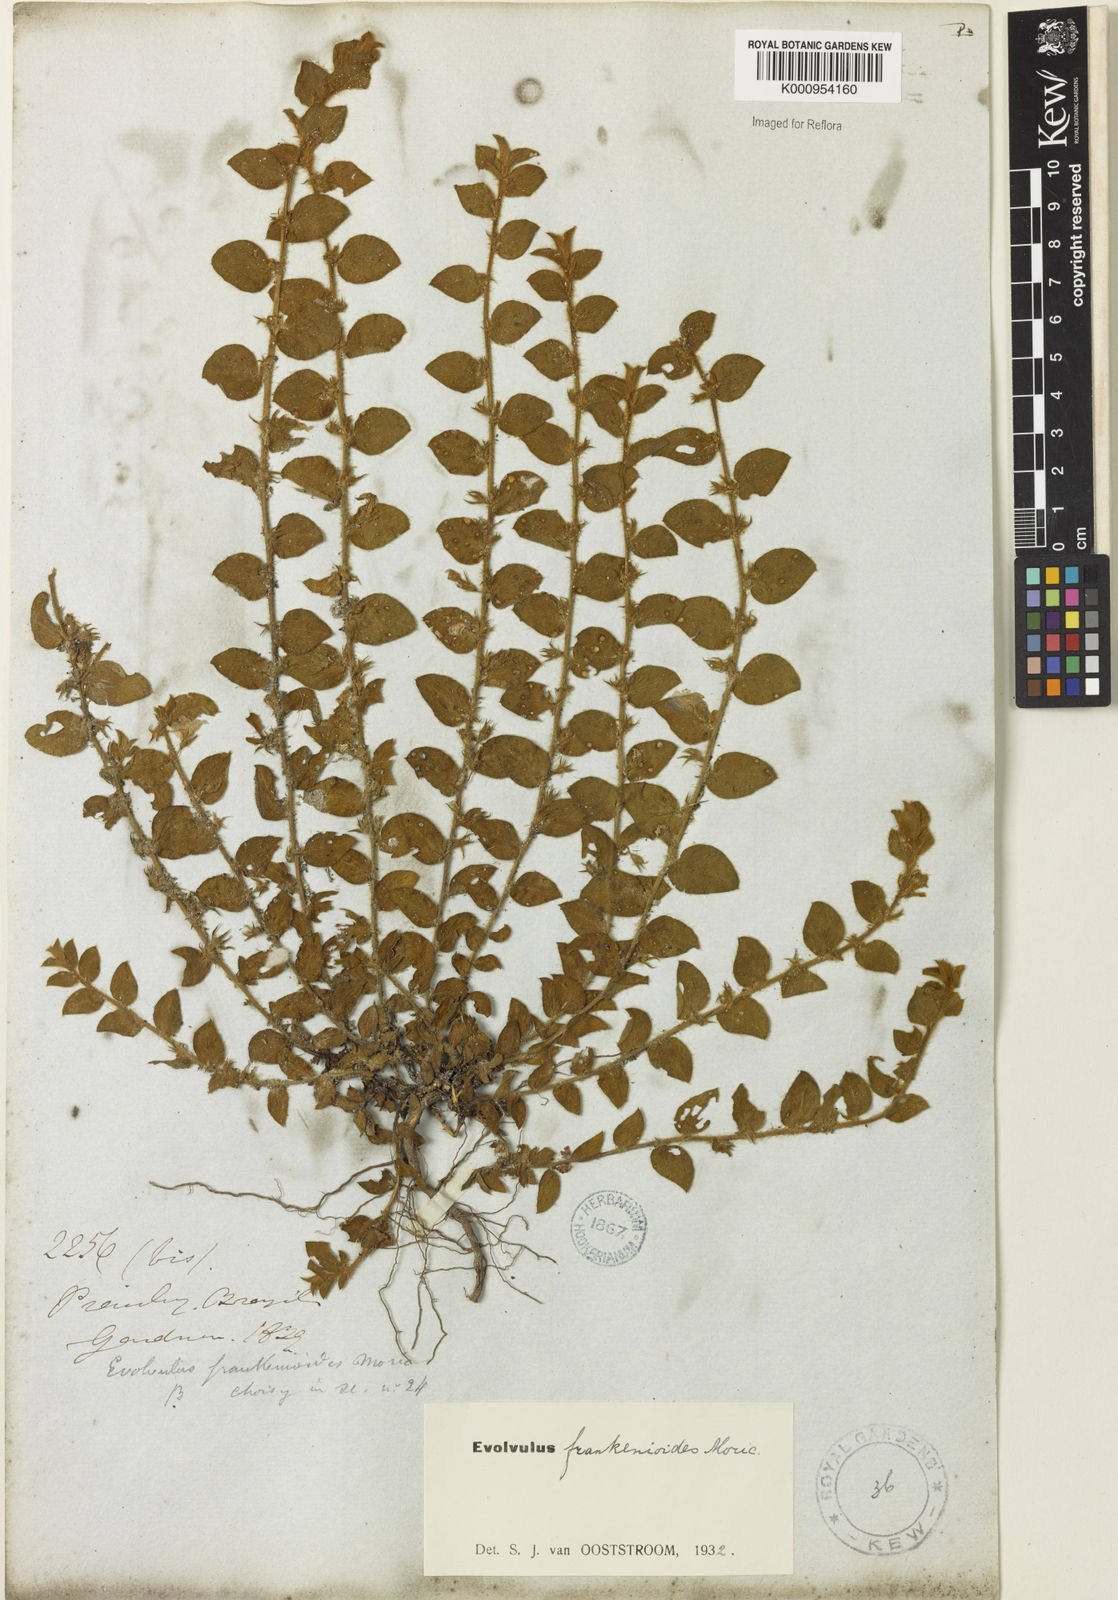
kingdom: Plantae
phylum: Tracheophyta
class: Magnoliopsida
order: Solanales
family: Convolvulaceae
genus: Evolvulus
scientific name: Evolvulus frankenioides
